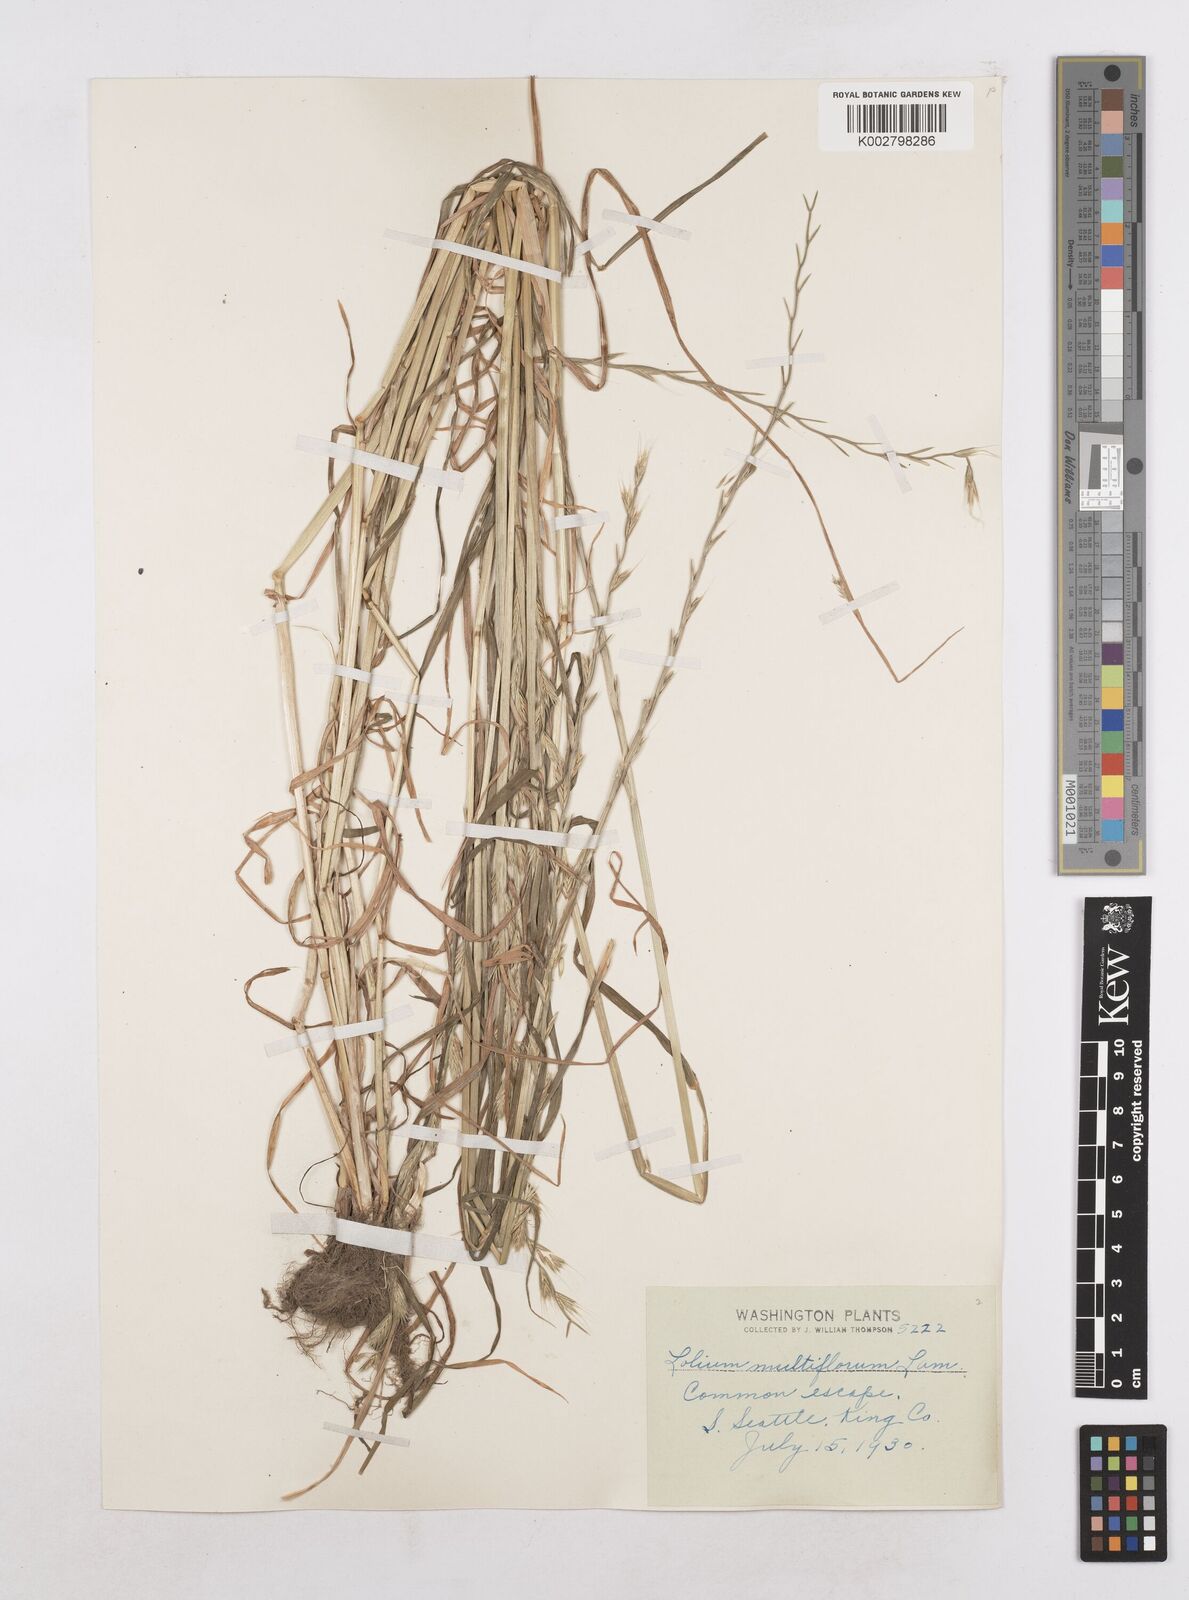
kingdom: Plantae
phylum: Tracheophyta
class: Liliopsida
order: Poales
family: Poaceae
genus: Lolium
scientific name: Lolium multiflorum
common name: Annual ryegrass
